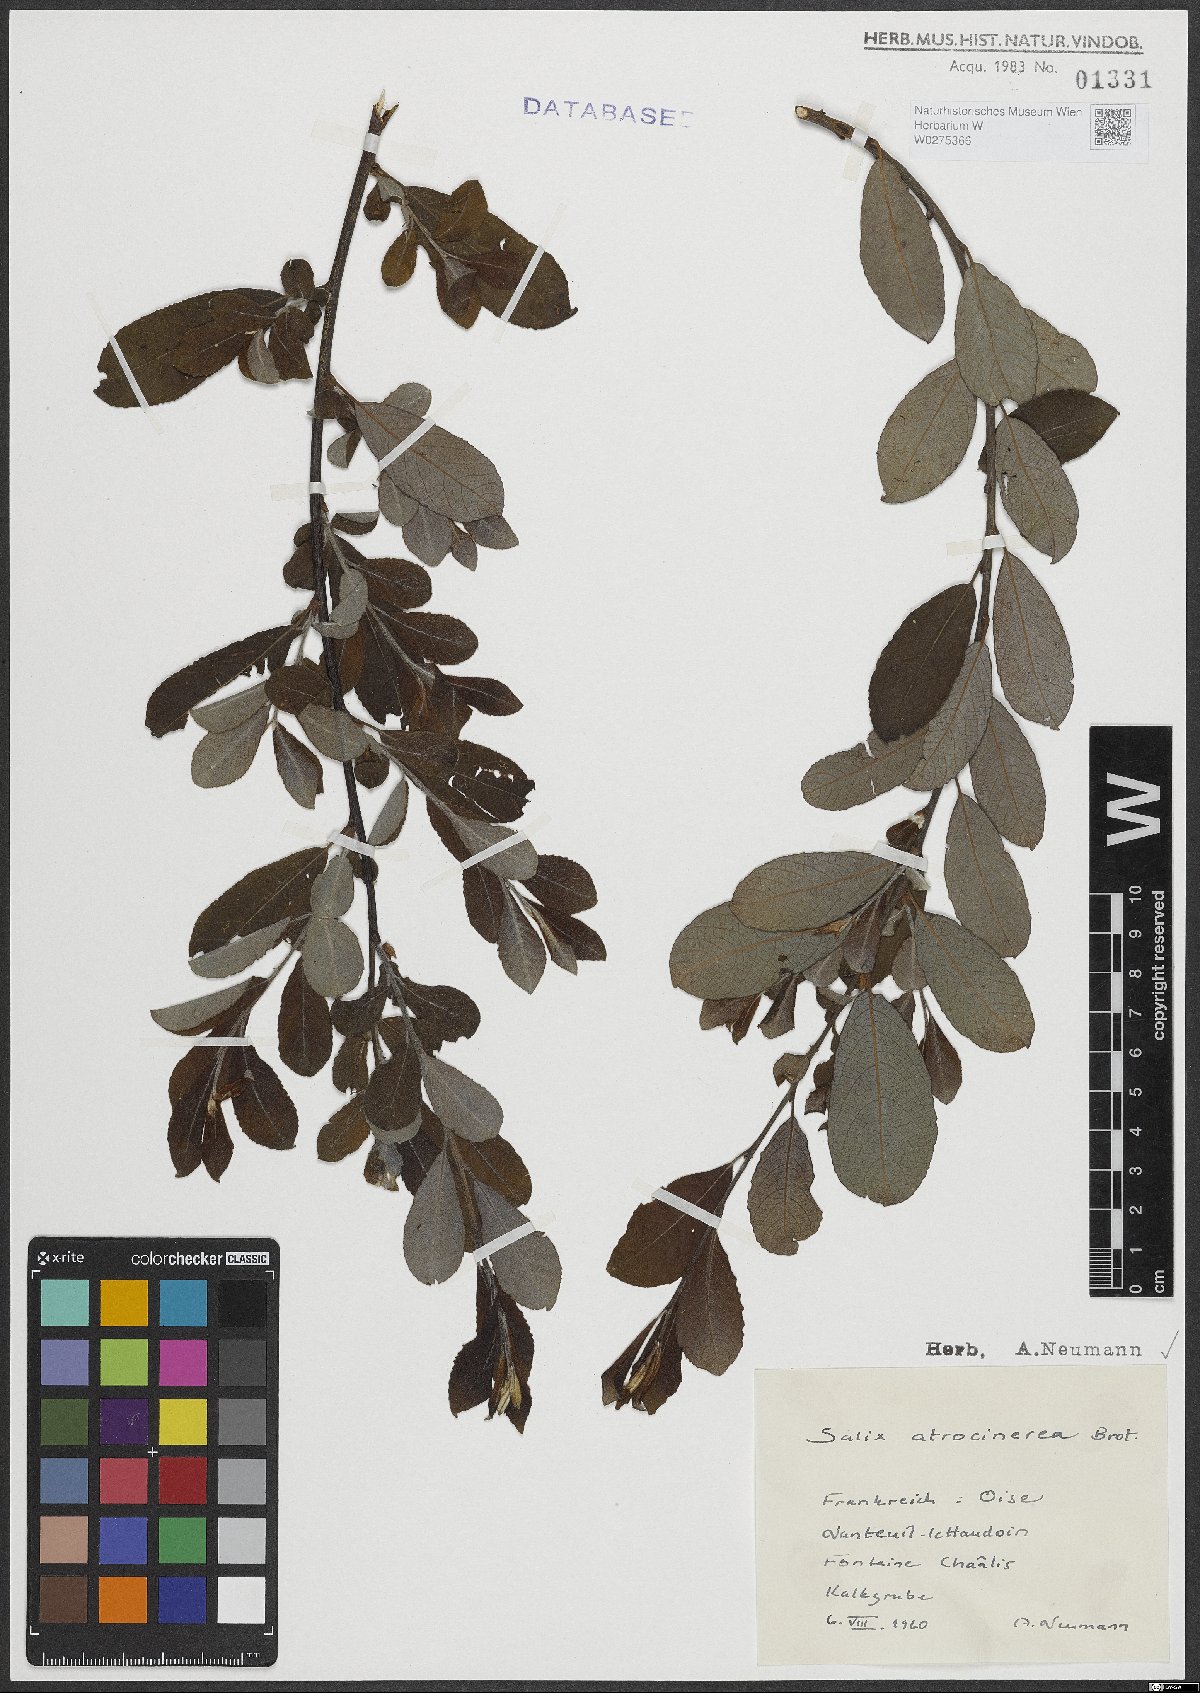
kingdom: Plantae
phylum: Tracheophyta
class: Magnoliopsida
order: Malpighiales
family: Salicaceae
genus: Salix
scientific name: Salix atrocinerea
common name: Rusty willow
